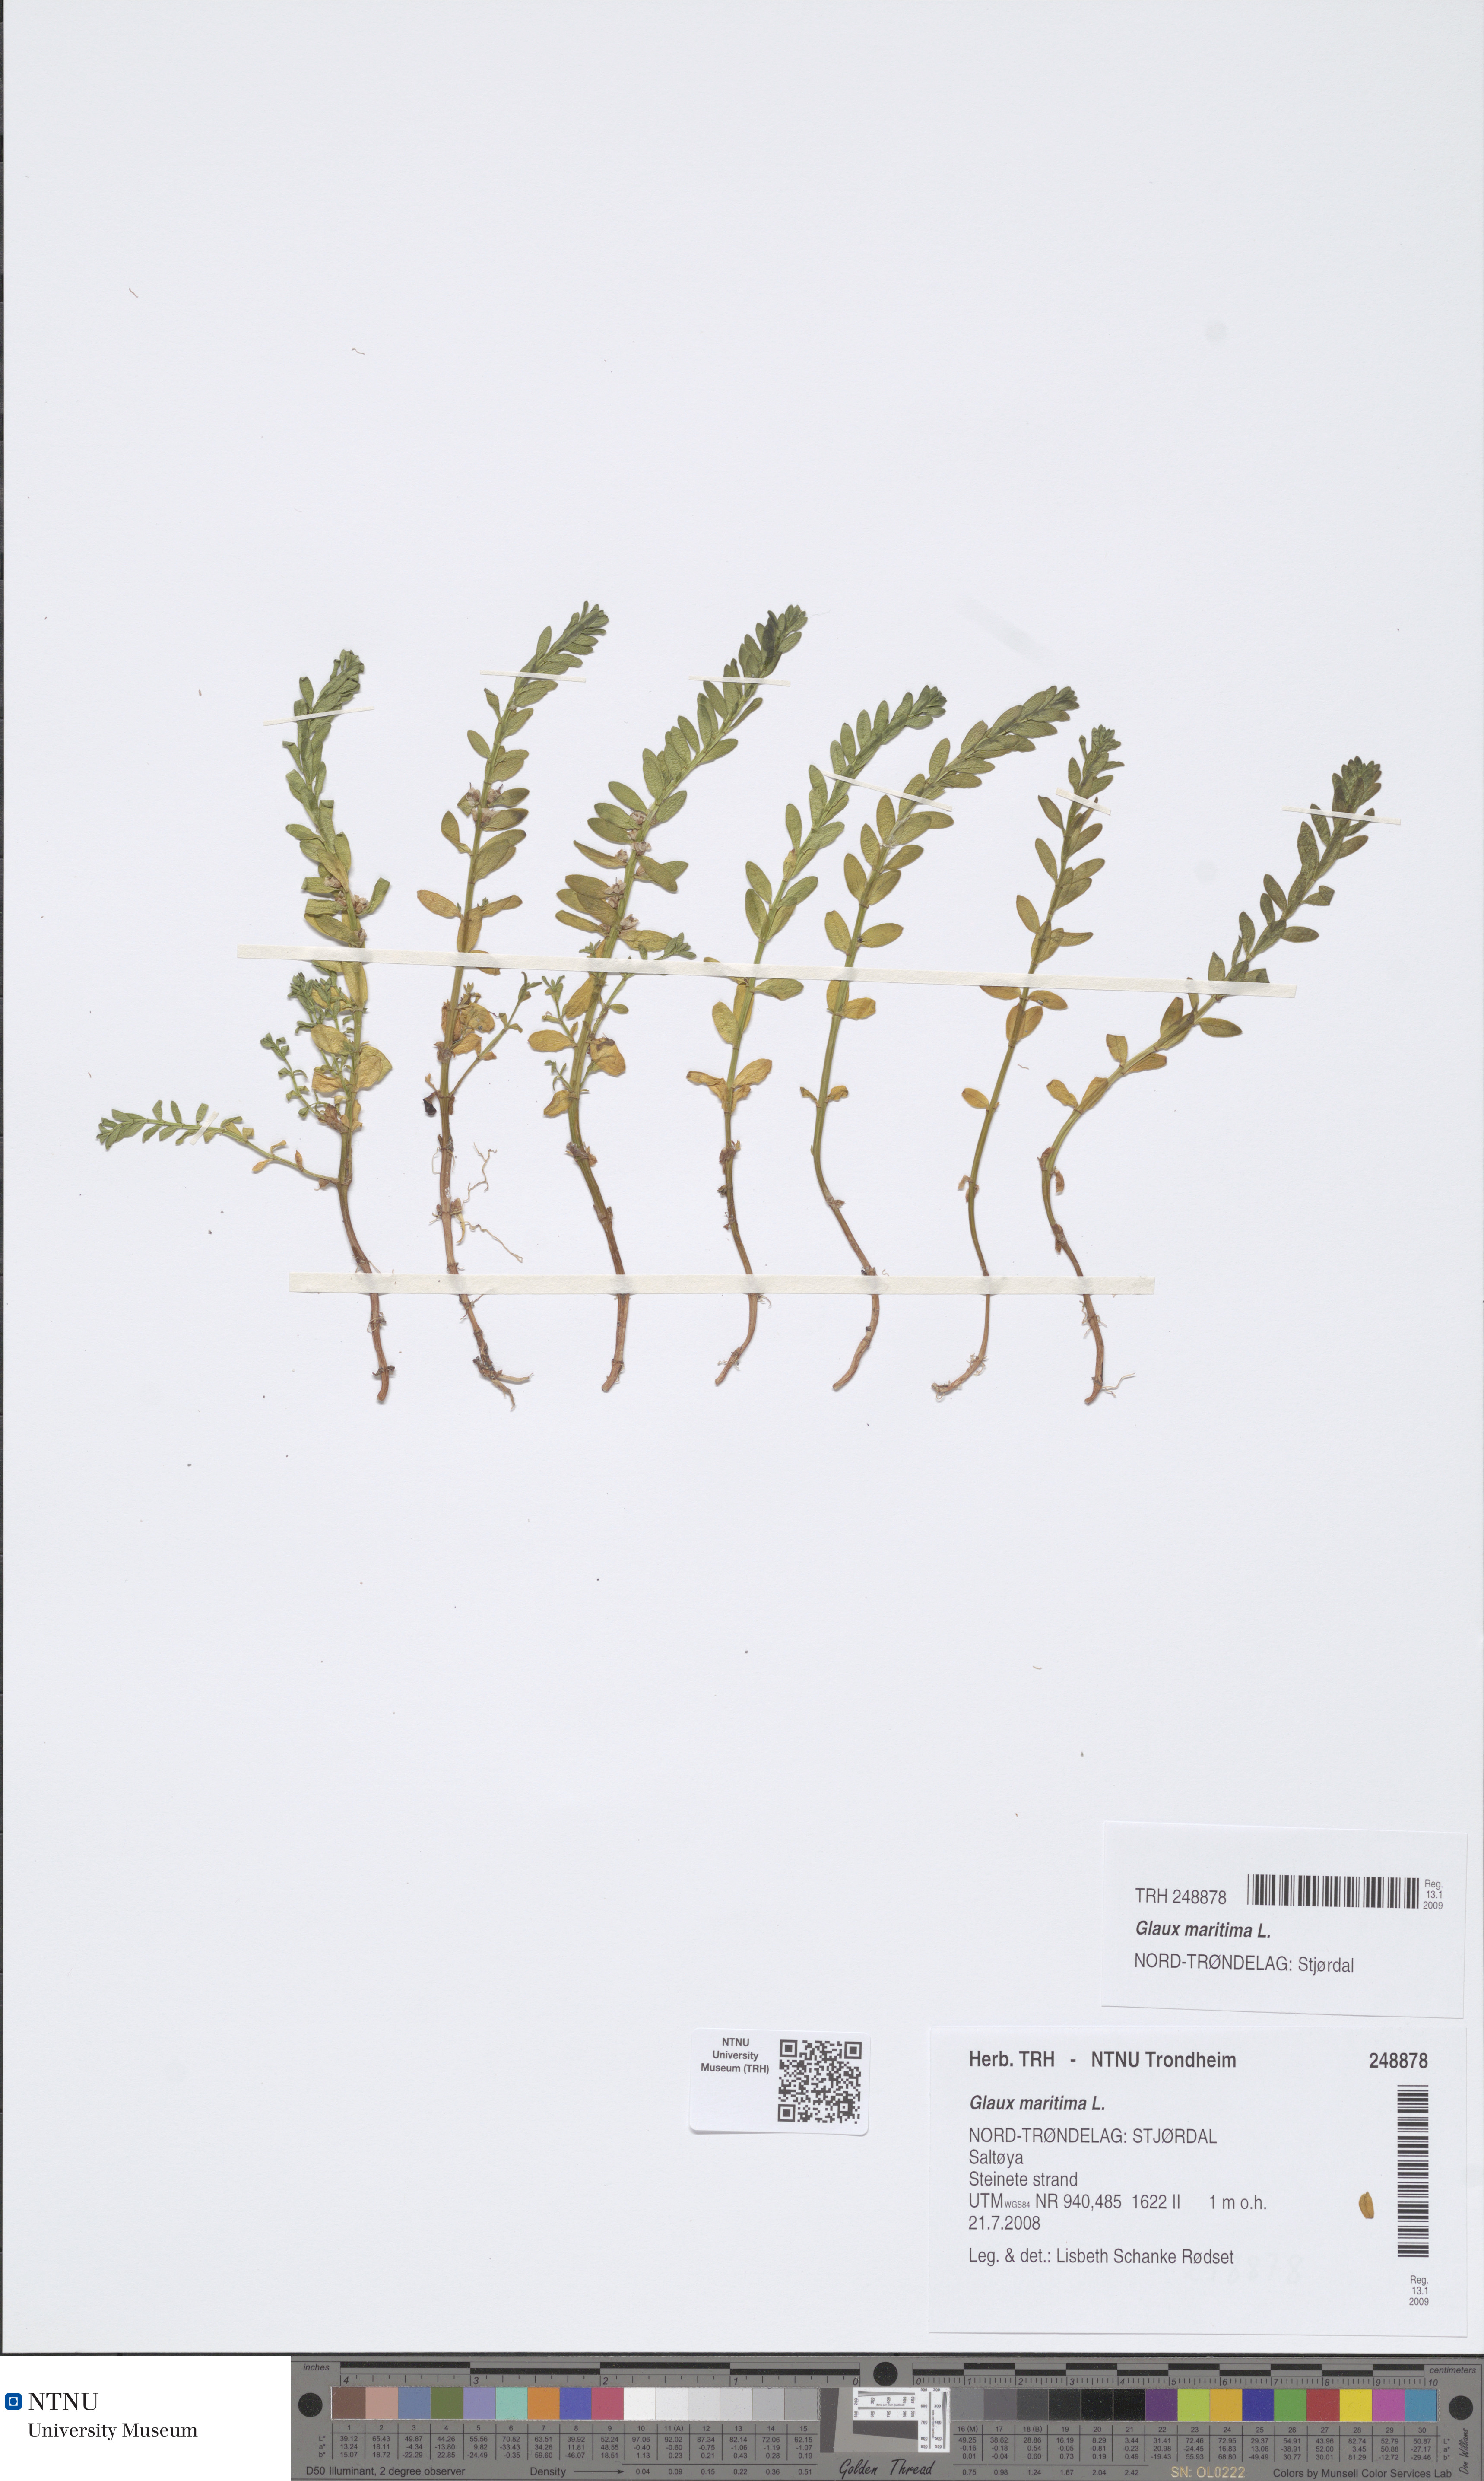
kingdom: Plantae
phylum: Tracheophyta
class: Magnoliopsida
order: Ericales
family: Primulaceae
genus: Lysimachia
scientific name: Lysimachia maritima
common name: Sea milkwort
